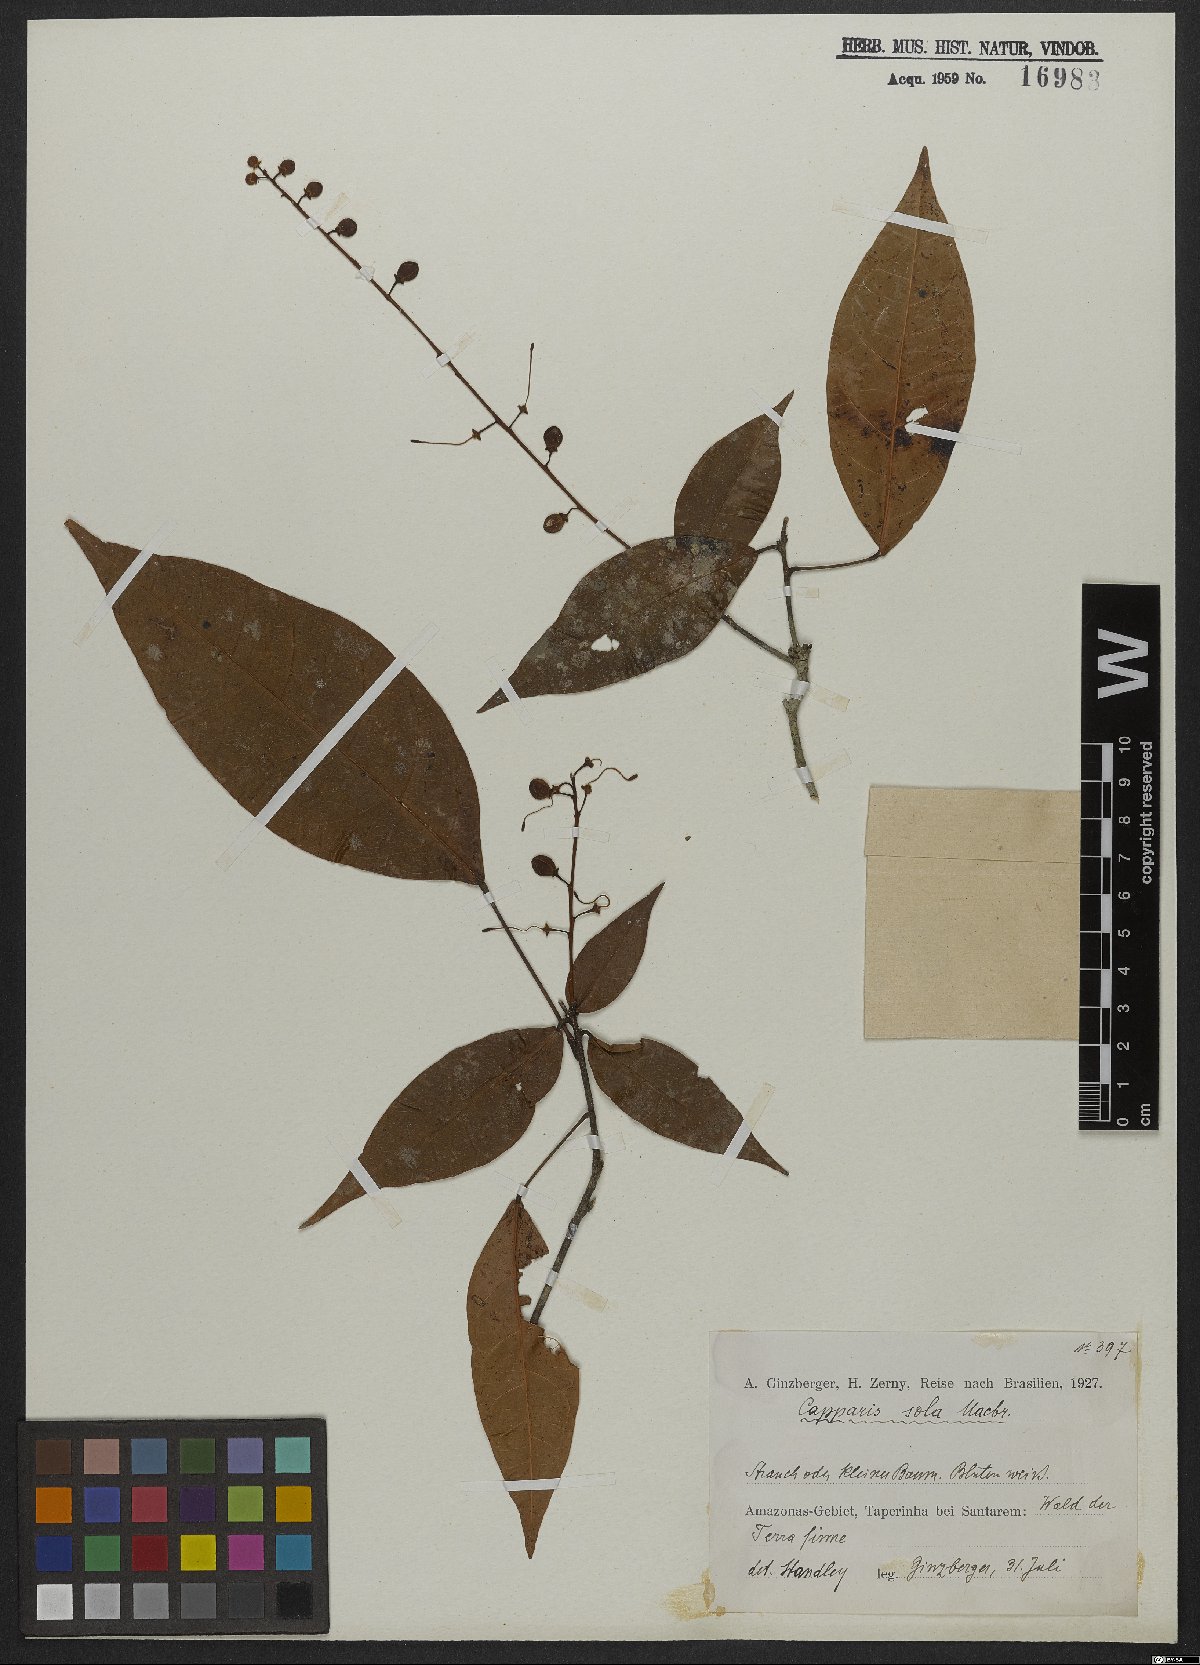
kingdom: Plantae
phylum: Tracheophyta
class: Magnoliopsida
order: Brassicales
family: Capparaceae
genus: Capparidastrum
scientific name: Capparidastrum solum
